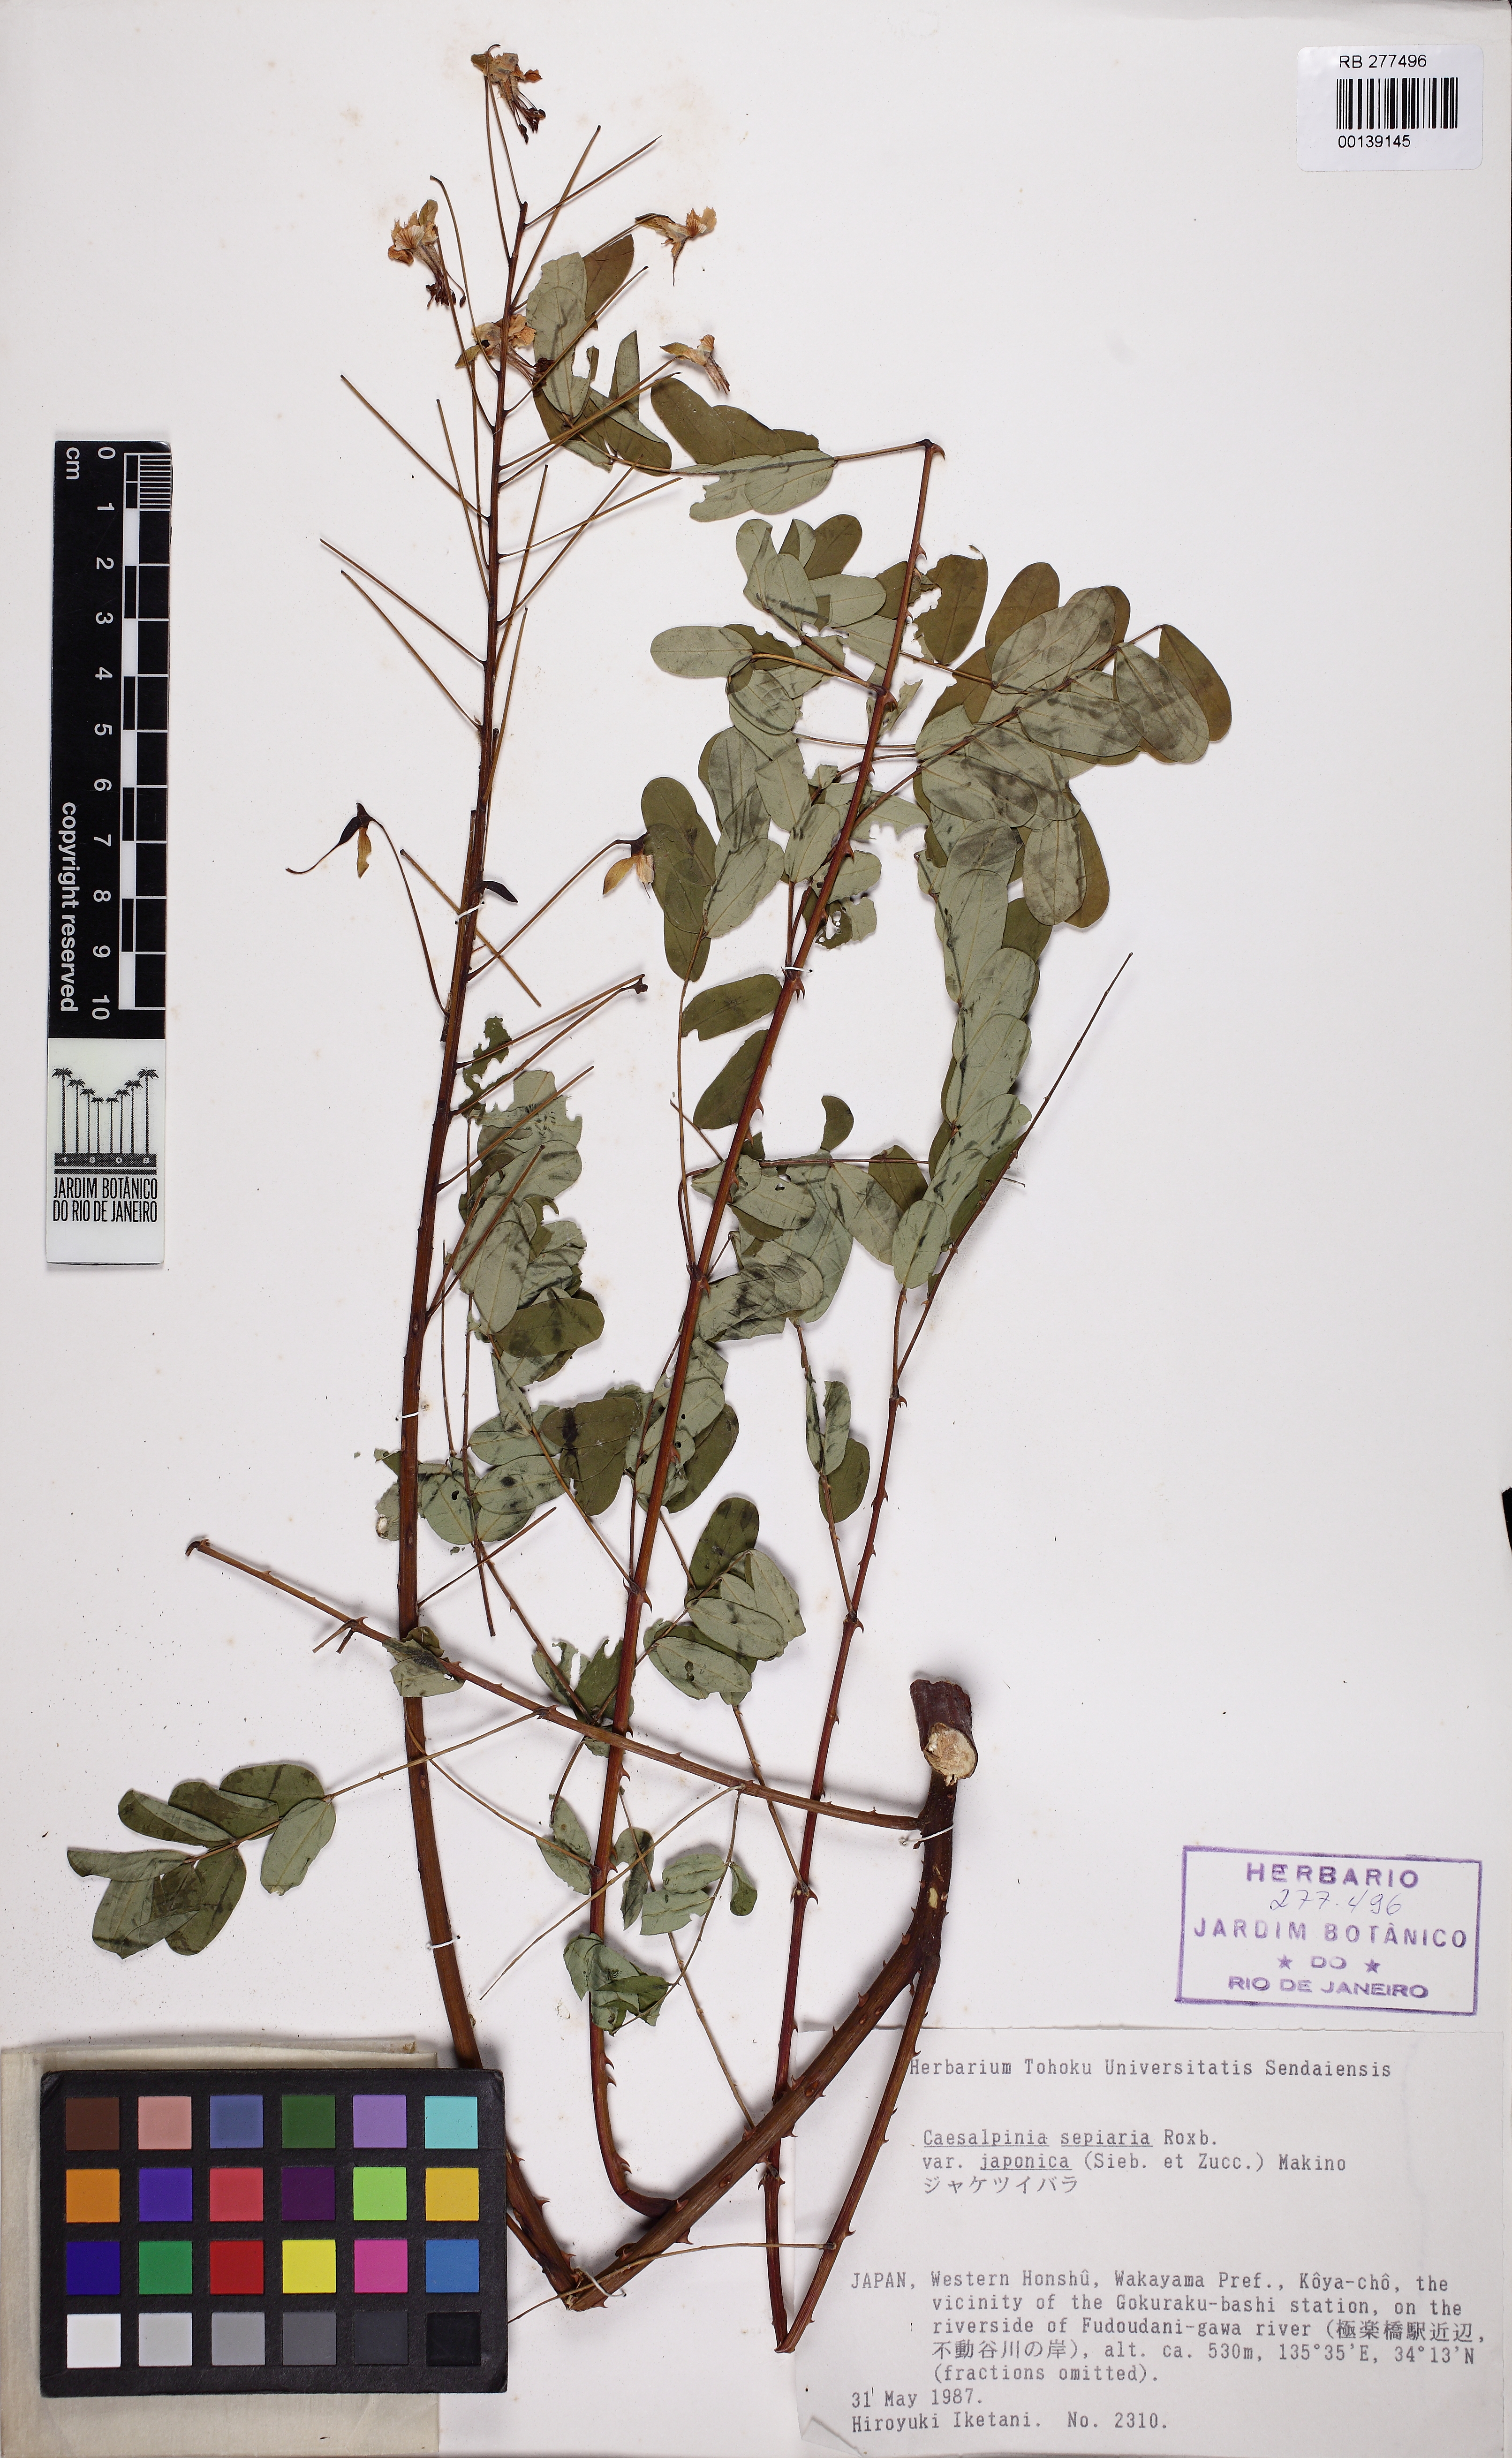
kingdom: Plantae
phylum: Tracheophyta
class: Magnoliopsida
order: Fabales
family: Fabaceae
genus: Biancaea
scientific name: Biancaea decapetala
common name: Cat's claw
